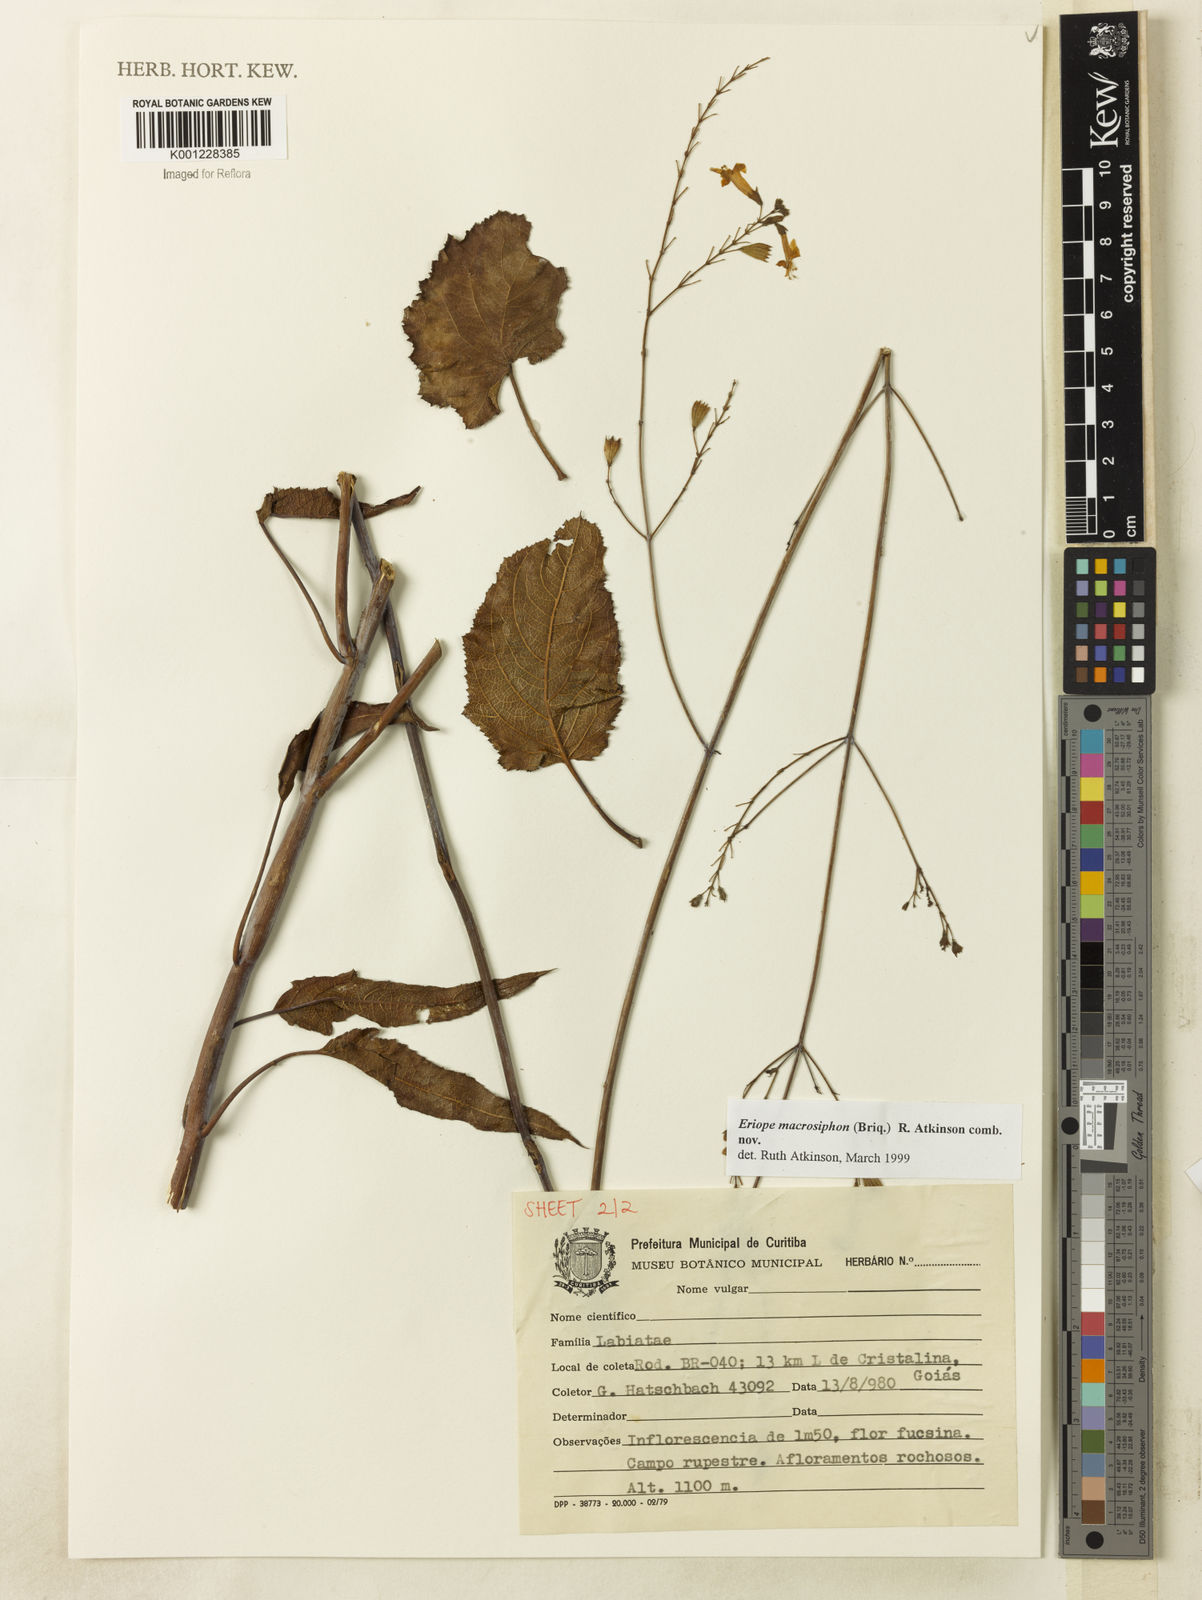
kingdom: Plantae
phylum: Tracheophyta
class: Magnoliopsida
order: Lamiales
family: Lamiaceae
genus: Hypenia
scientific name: Hypenia macrosiphon
